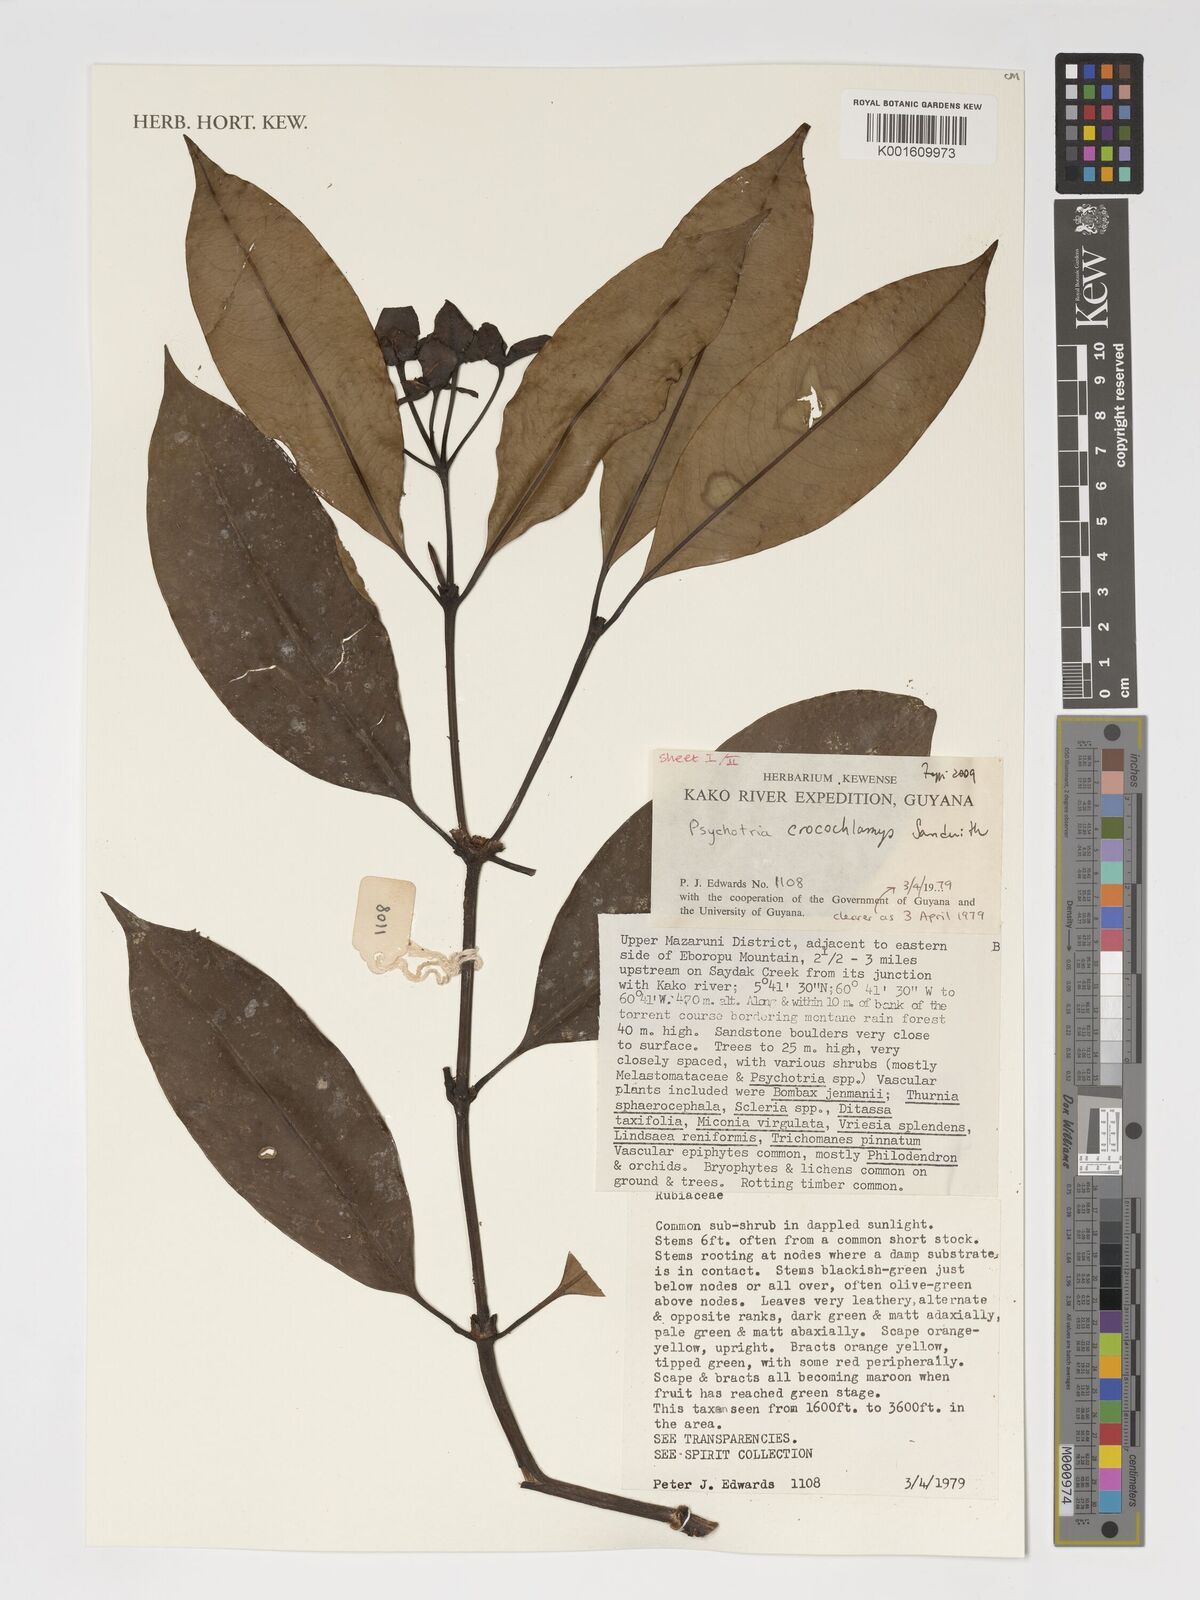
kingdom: Plantae
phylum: Tracheophyta
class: Magnoliopsida
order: Gentianales
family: Rubiaceae
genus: Palicourea
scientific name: Palicourea crocochlamys
